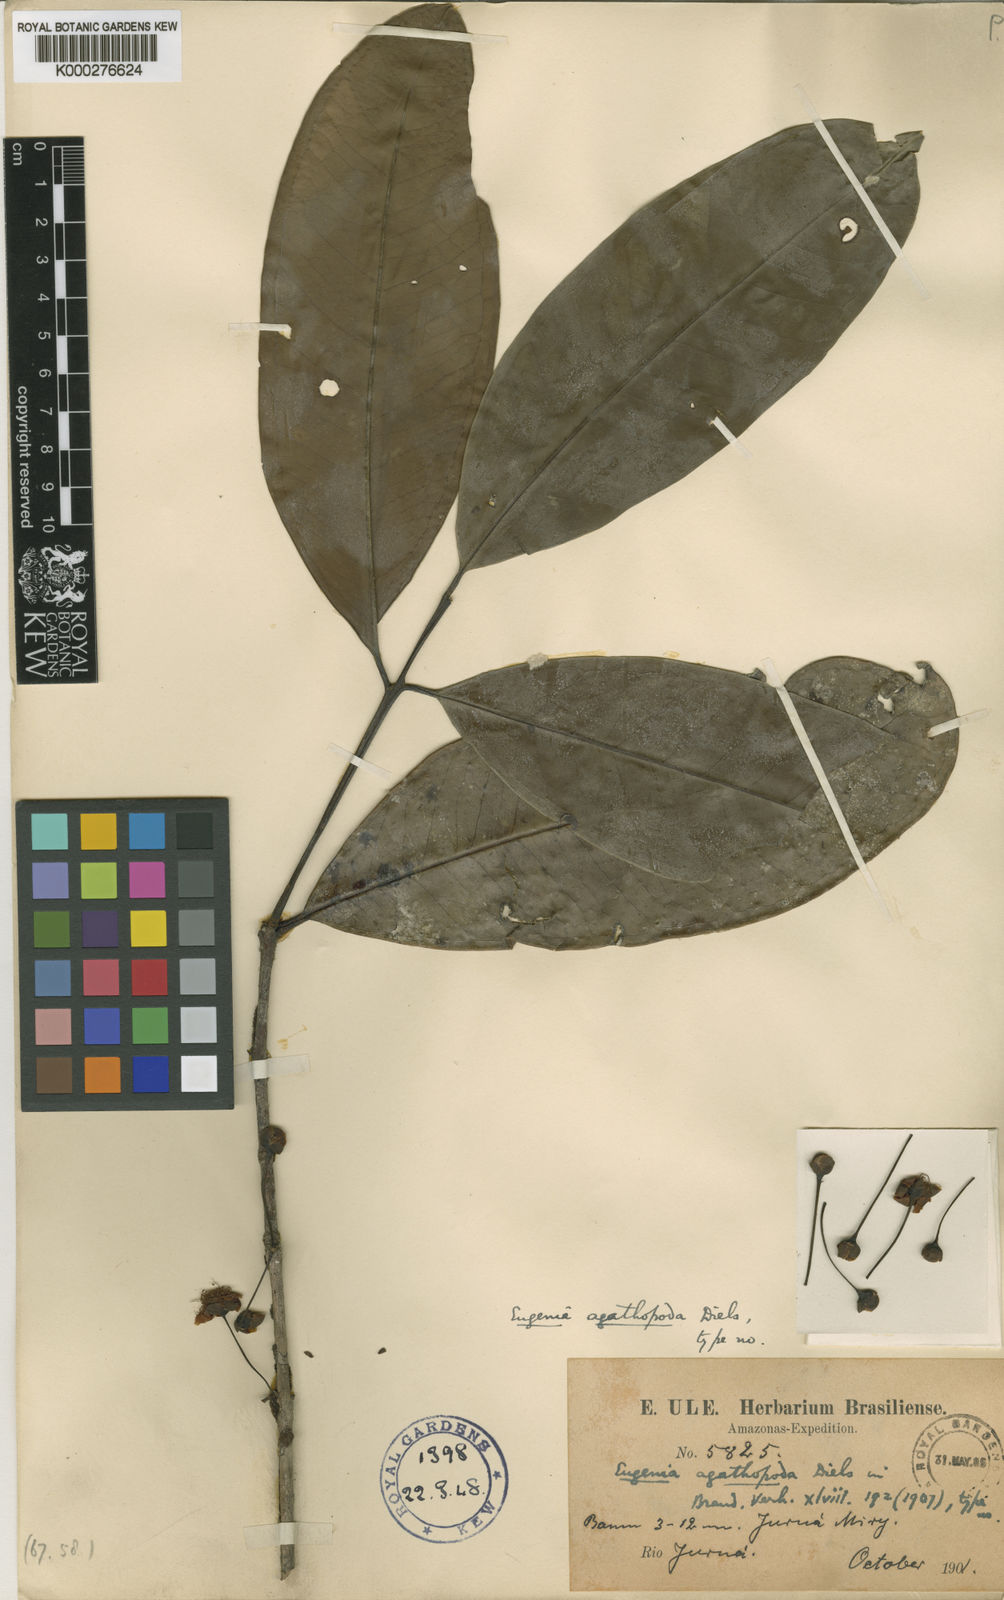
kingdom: Plantae
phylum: Tracheophyta
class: Magnoliopsida
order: Myrtales
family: Myrtaceae
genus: Eugenia
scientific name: Eugenia agathopoda
